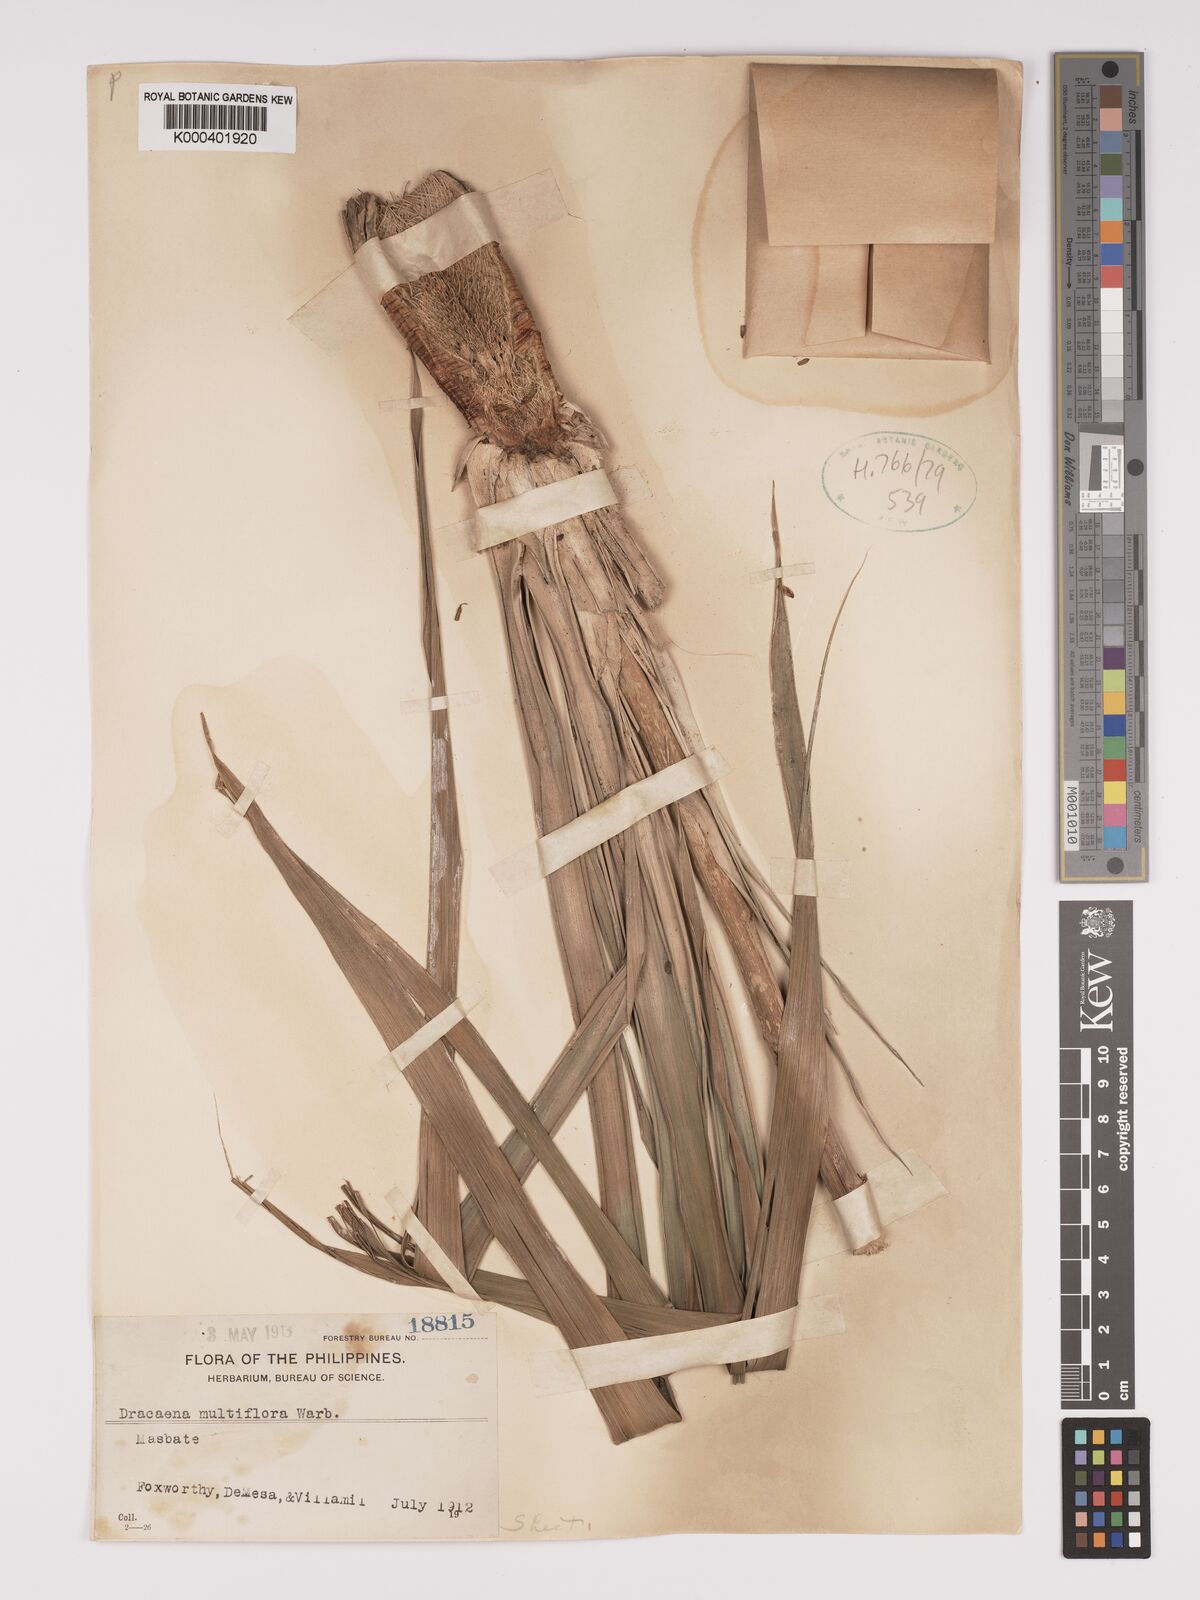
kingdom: Plantae
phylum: Tracheophyta
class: Liliopsida
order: Asparagales
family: Asparagaceae
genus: Dracaena
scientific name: Dracaena multiflora
